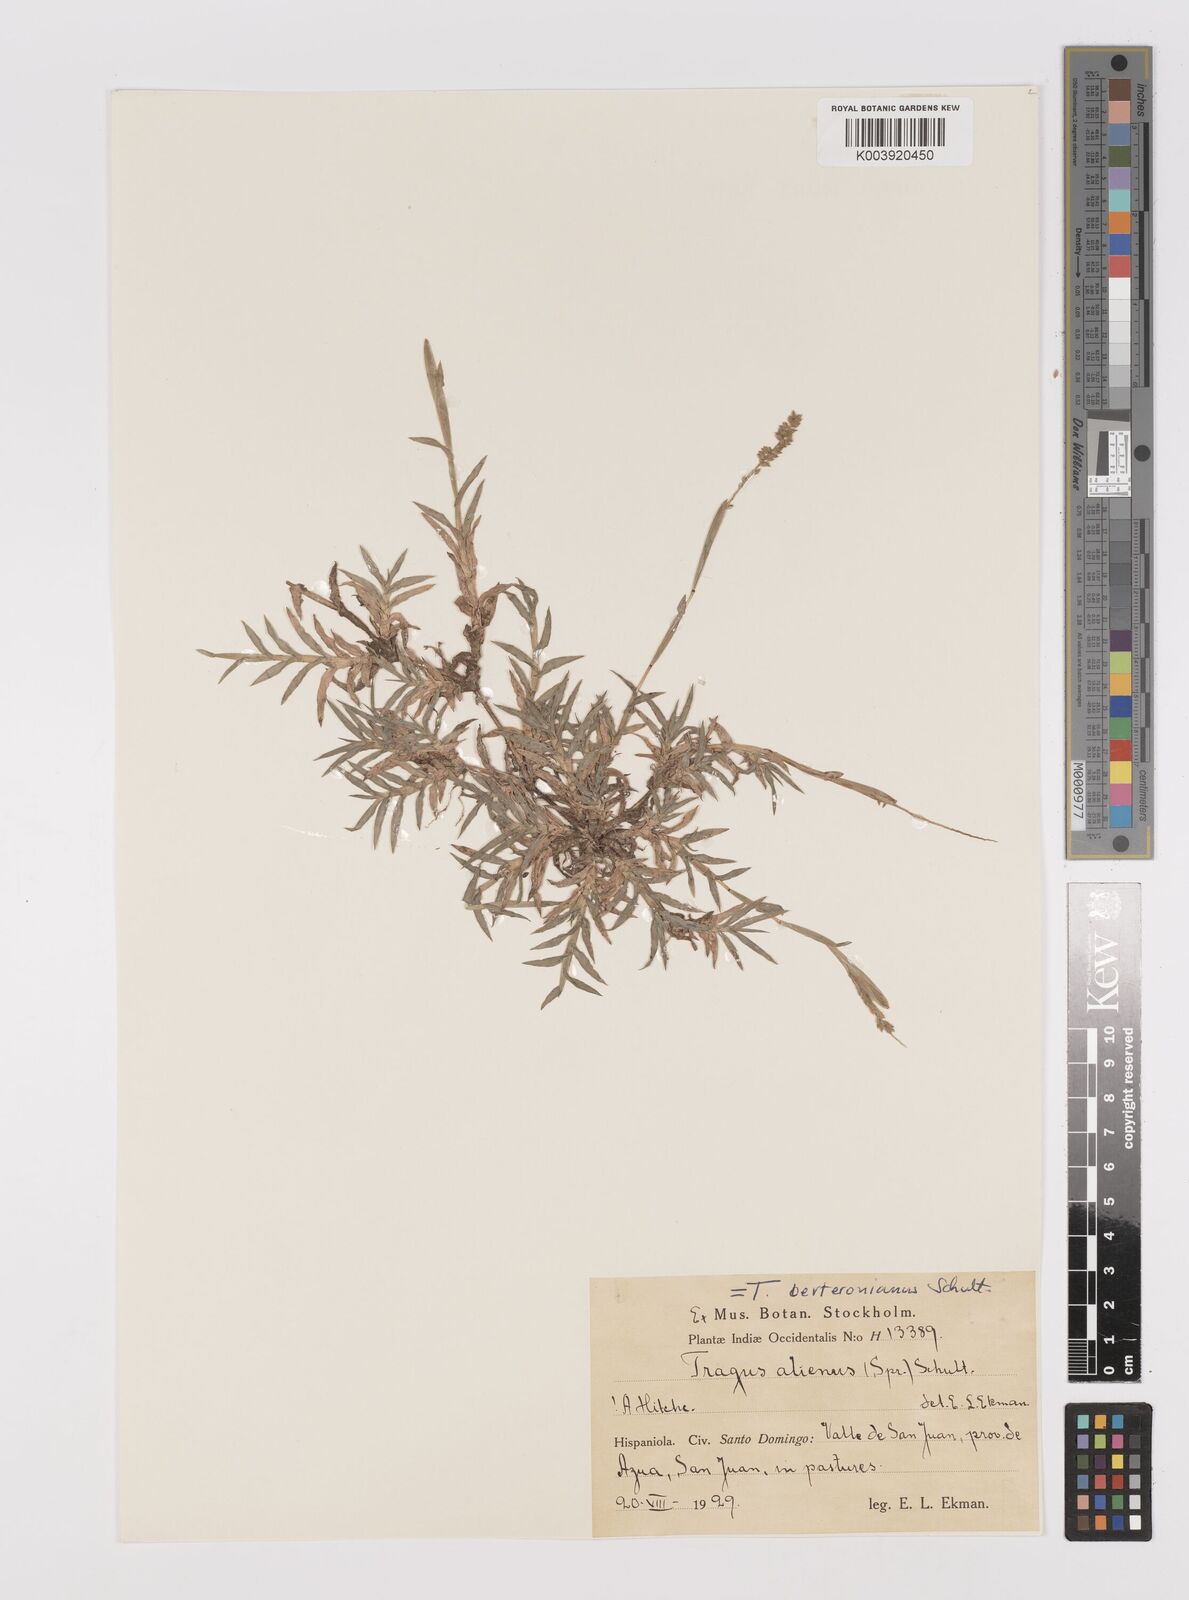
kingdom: Plantae
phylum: Tracheophyta
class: Liliopsida
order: Poales
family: Poaceae
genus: Tragus
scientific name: Tragus berteronianus
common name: African bur-grass
